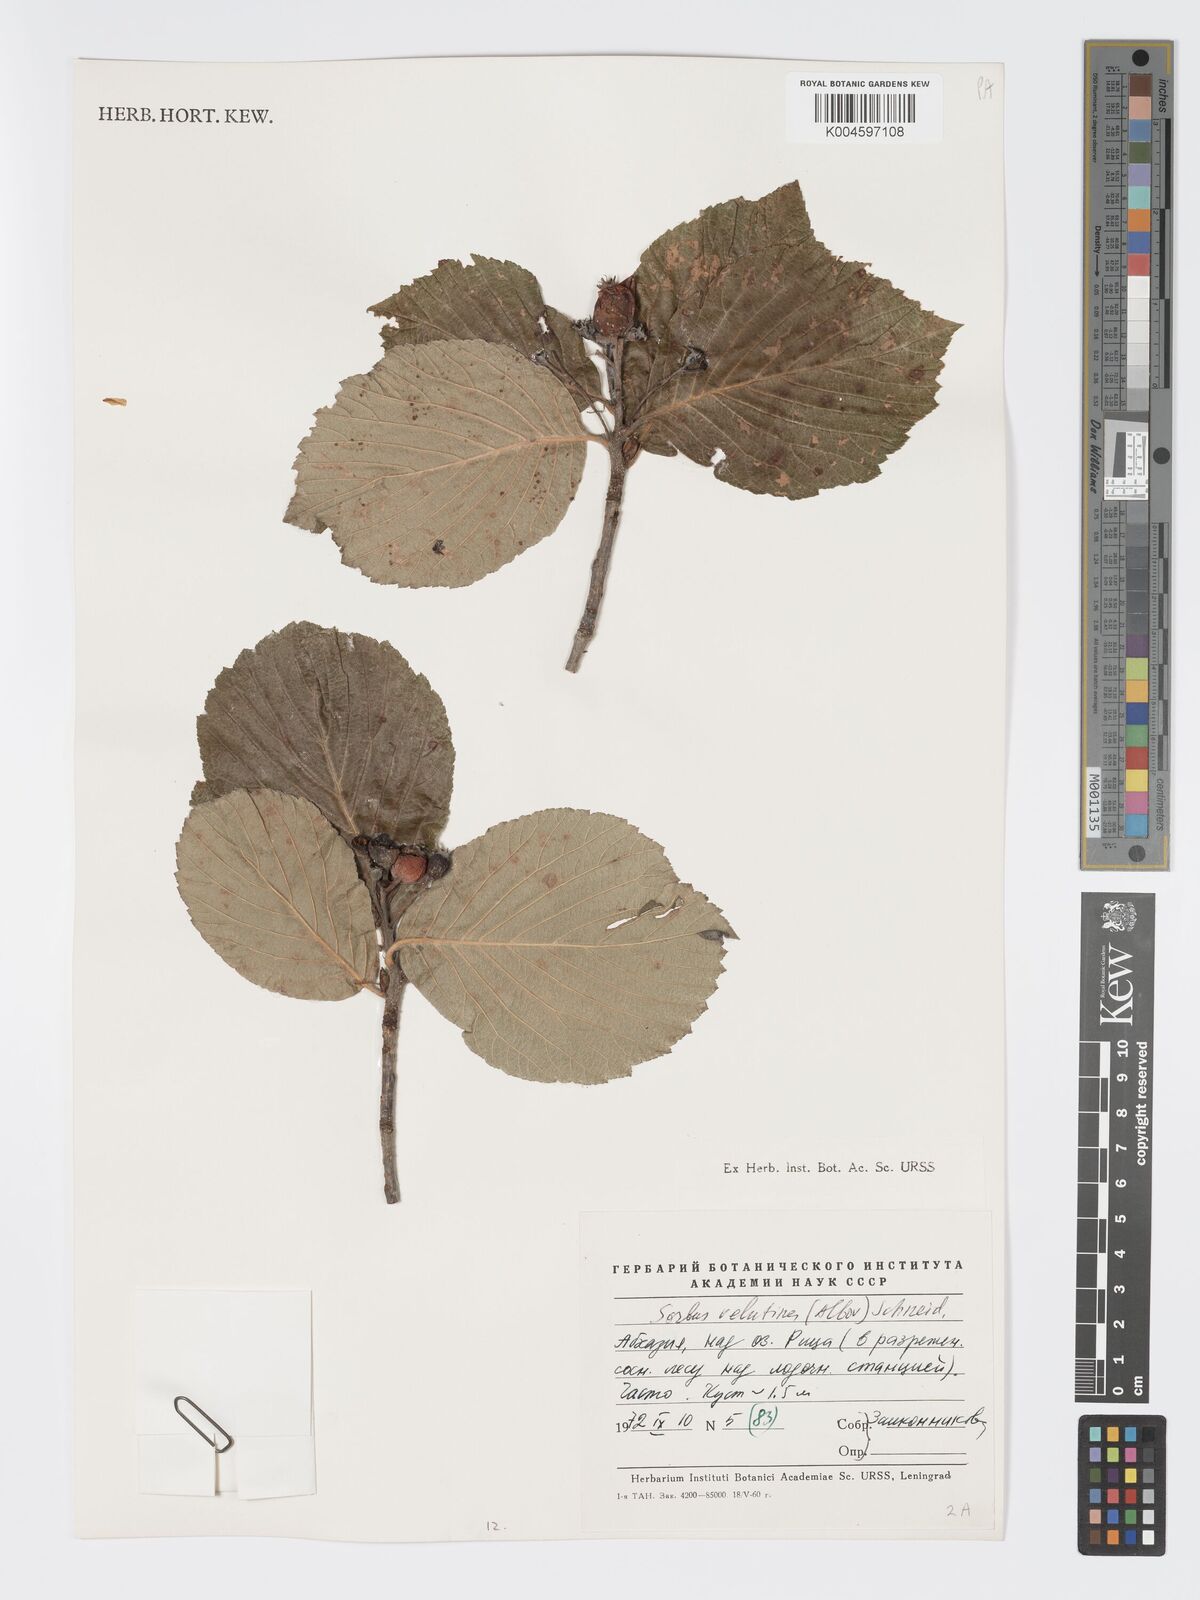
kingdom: Plantae
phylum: Tracheophyta
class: Magnoliopsida
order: Rosales
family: Rosaceae
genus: Sorbus
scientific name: Sorbus subfusca
